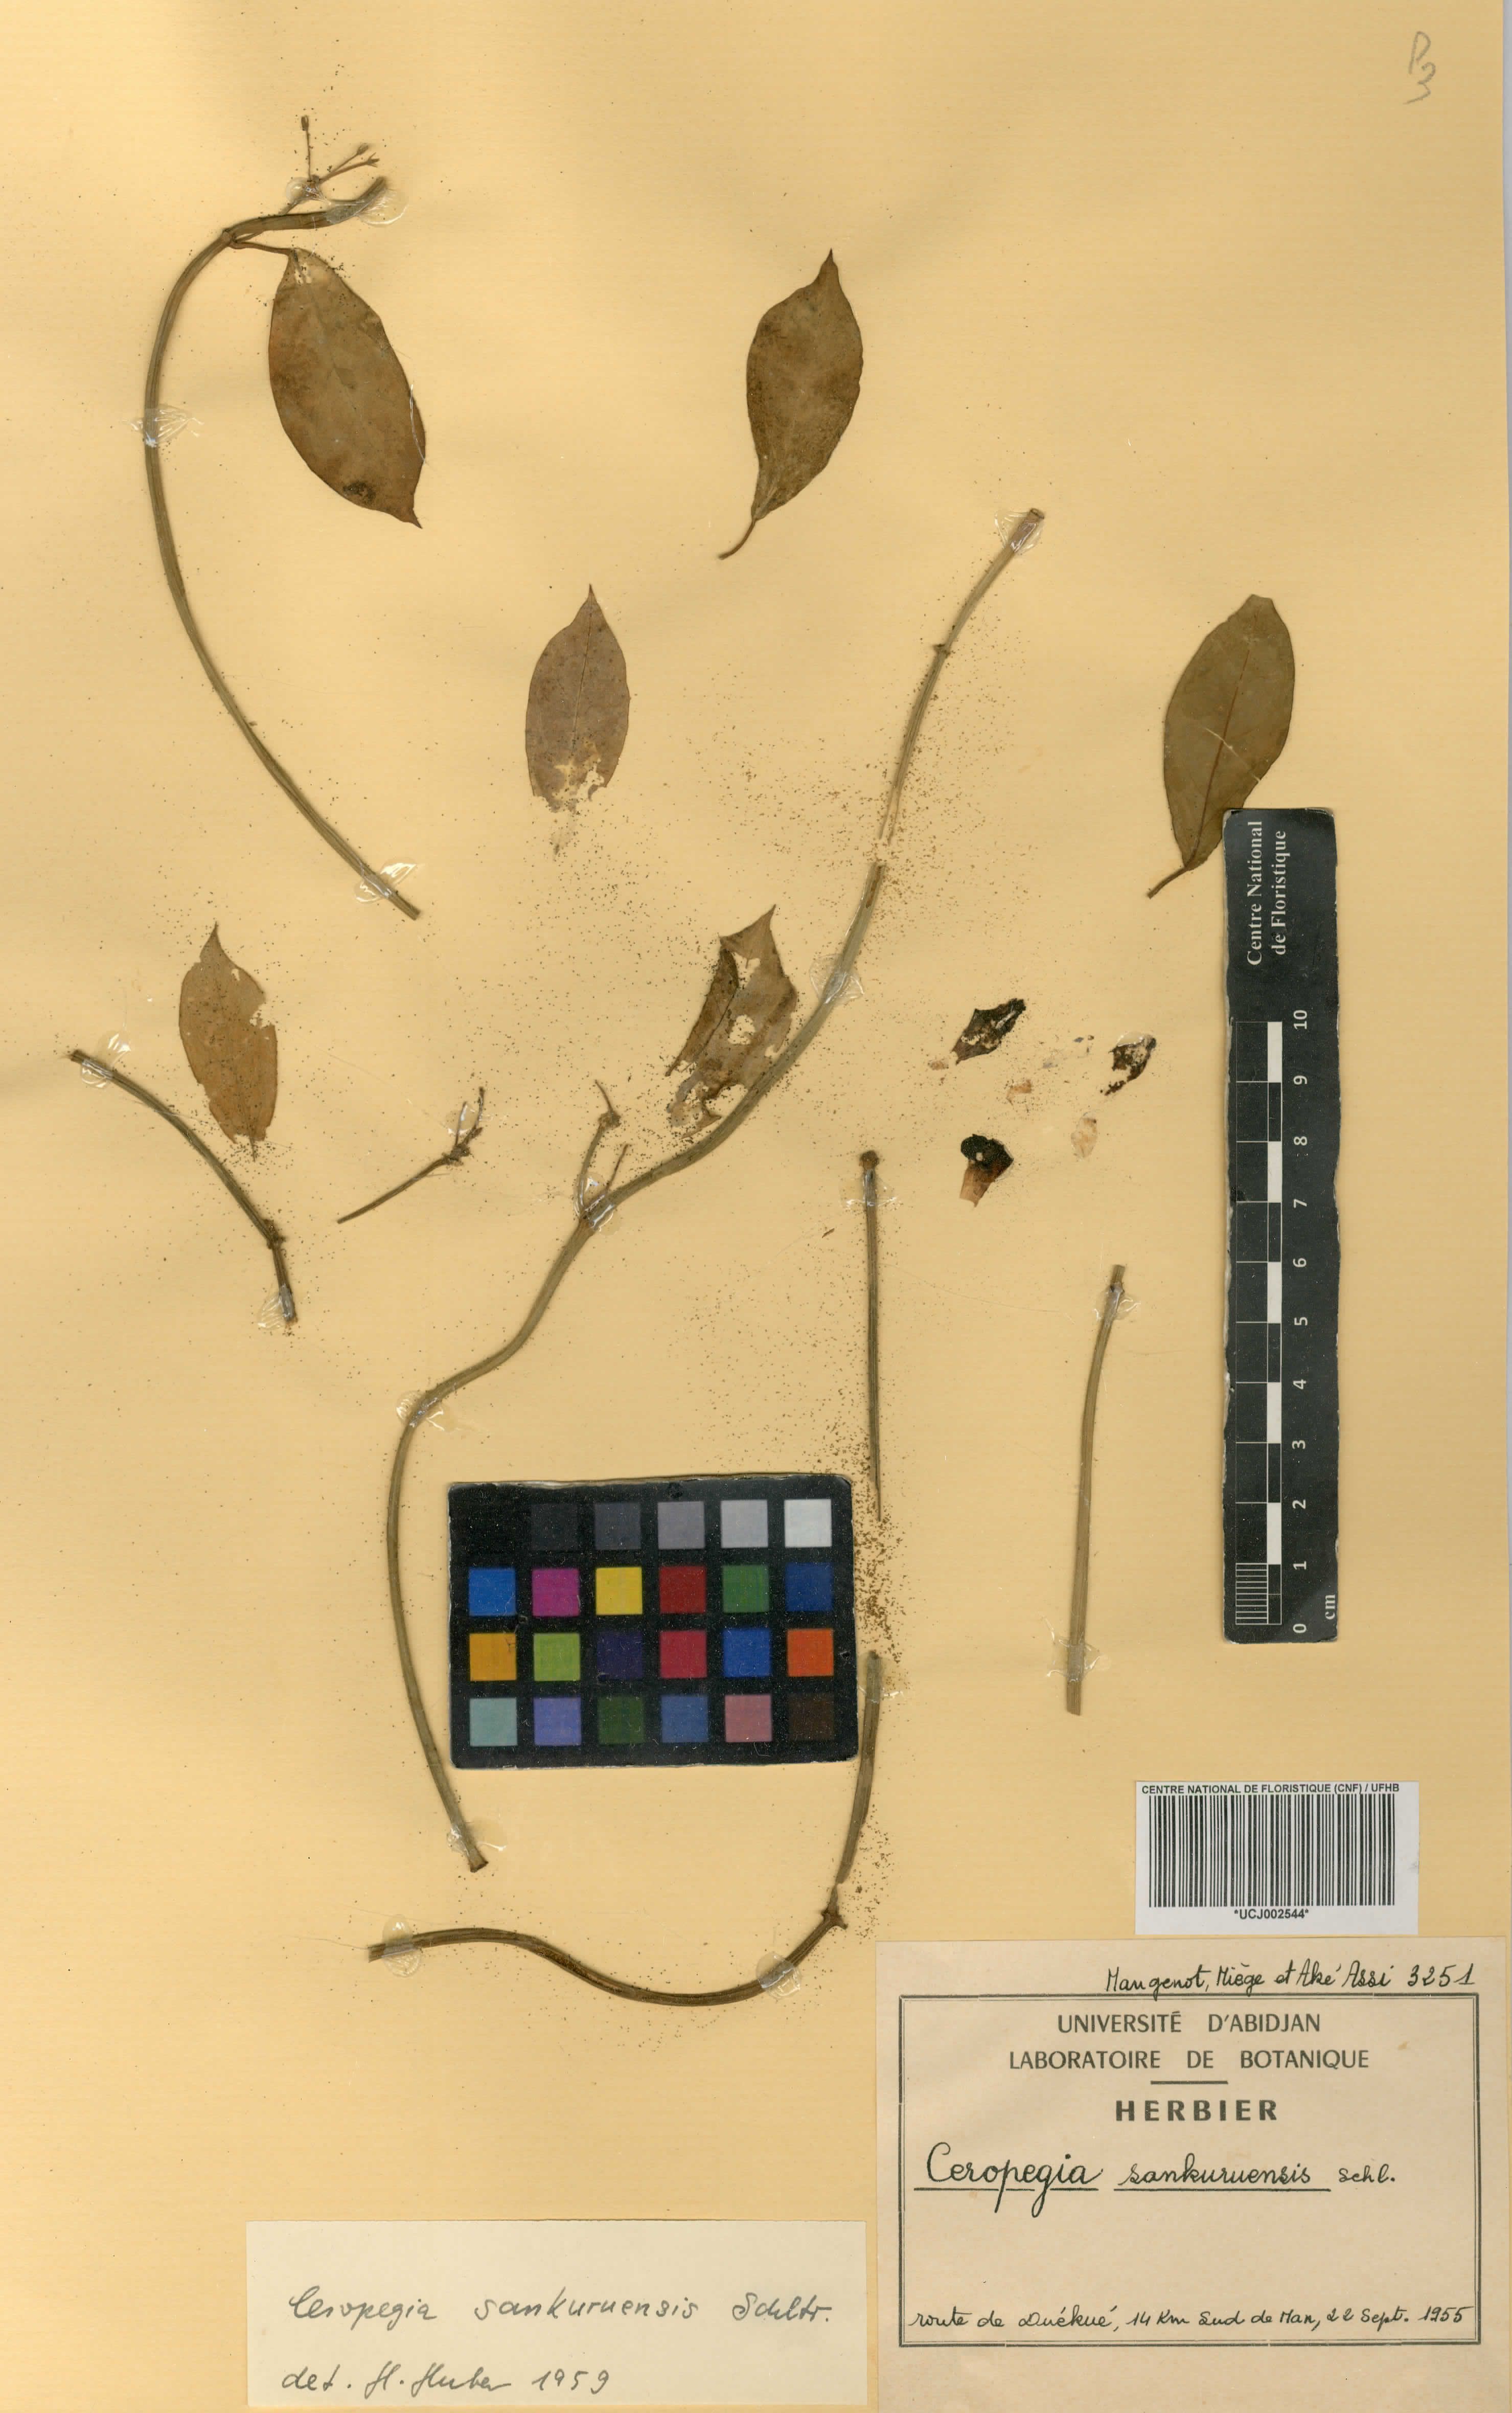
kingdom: Plantae
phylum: Tracheophyta
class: Magnoliopsida
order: Gentianales
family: Apocynaceae
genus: Ceropegia
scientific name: Ceropegia sankuruensis
